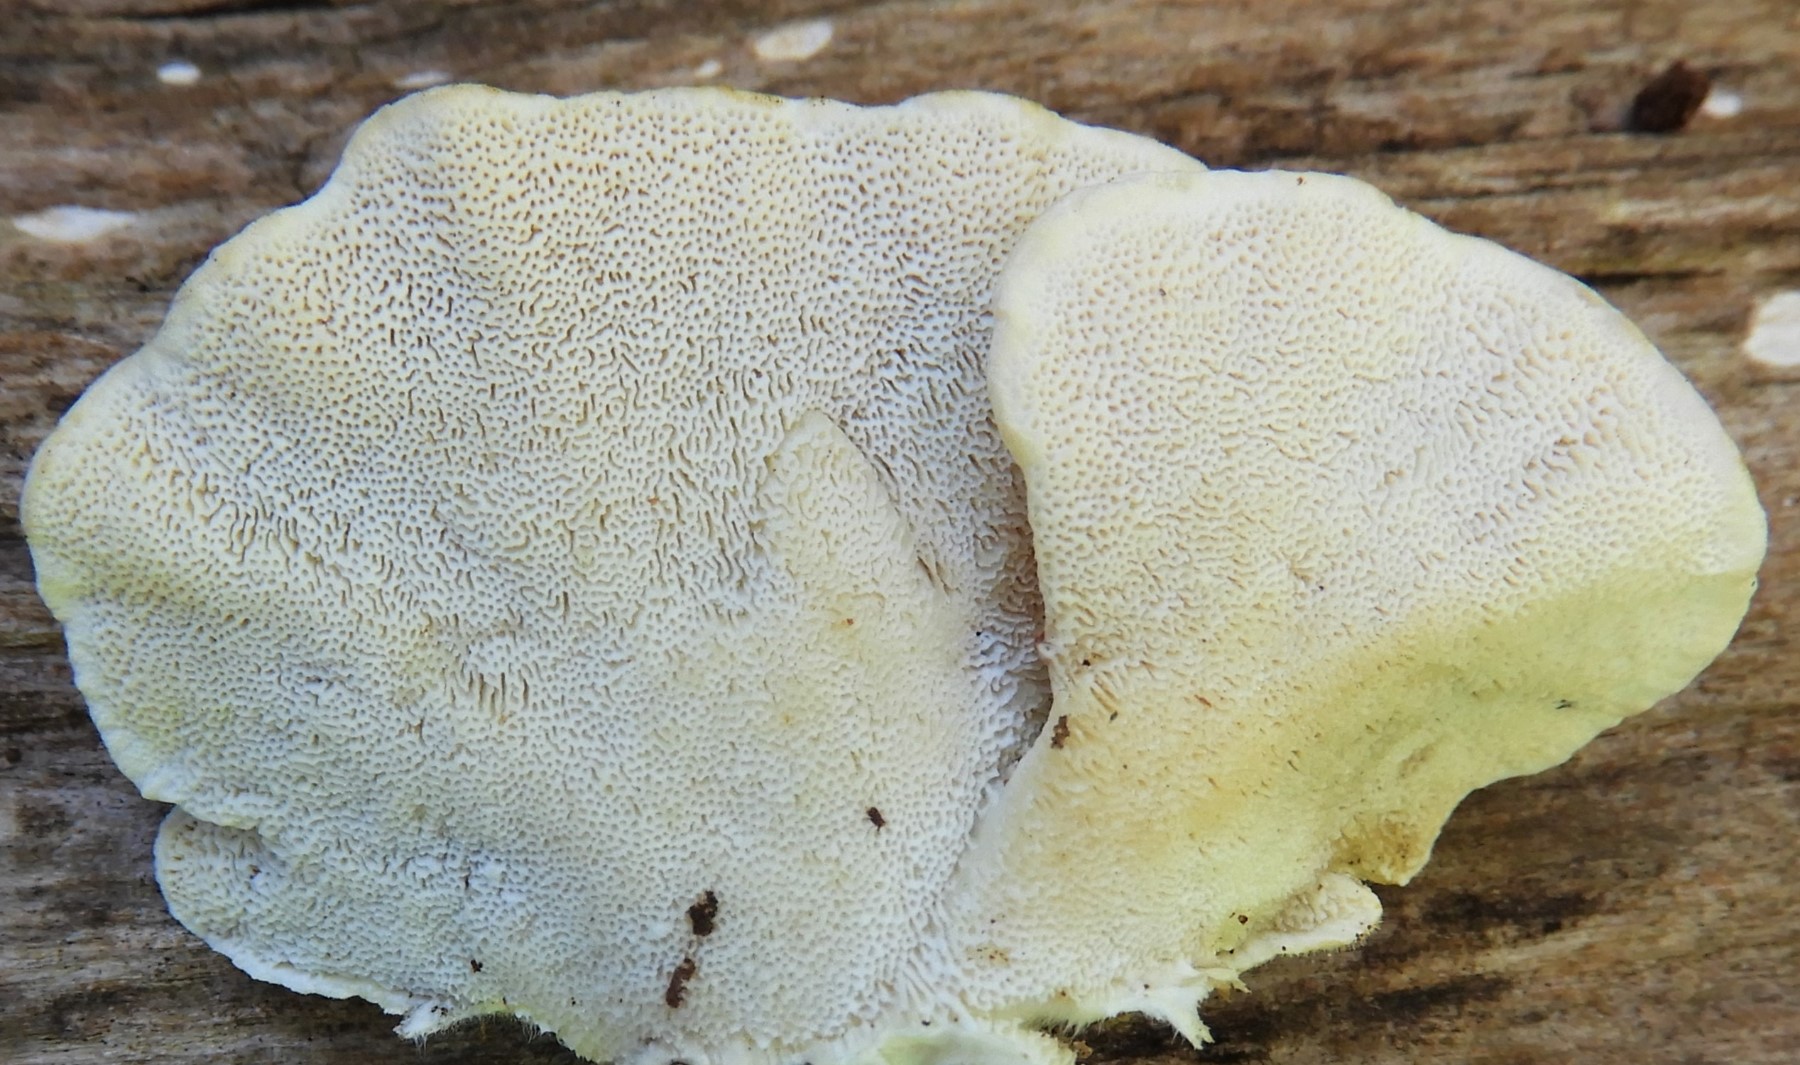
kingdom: Fungi
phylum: Basidiomycota
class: Agaricomycetes
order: Polyporales
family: Polyporaceae
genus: Trametes
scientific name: Trametes versicolor
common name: broget læderporesvamp
